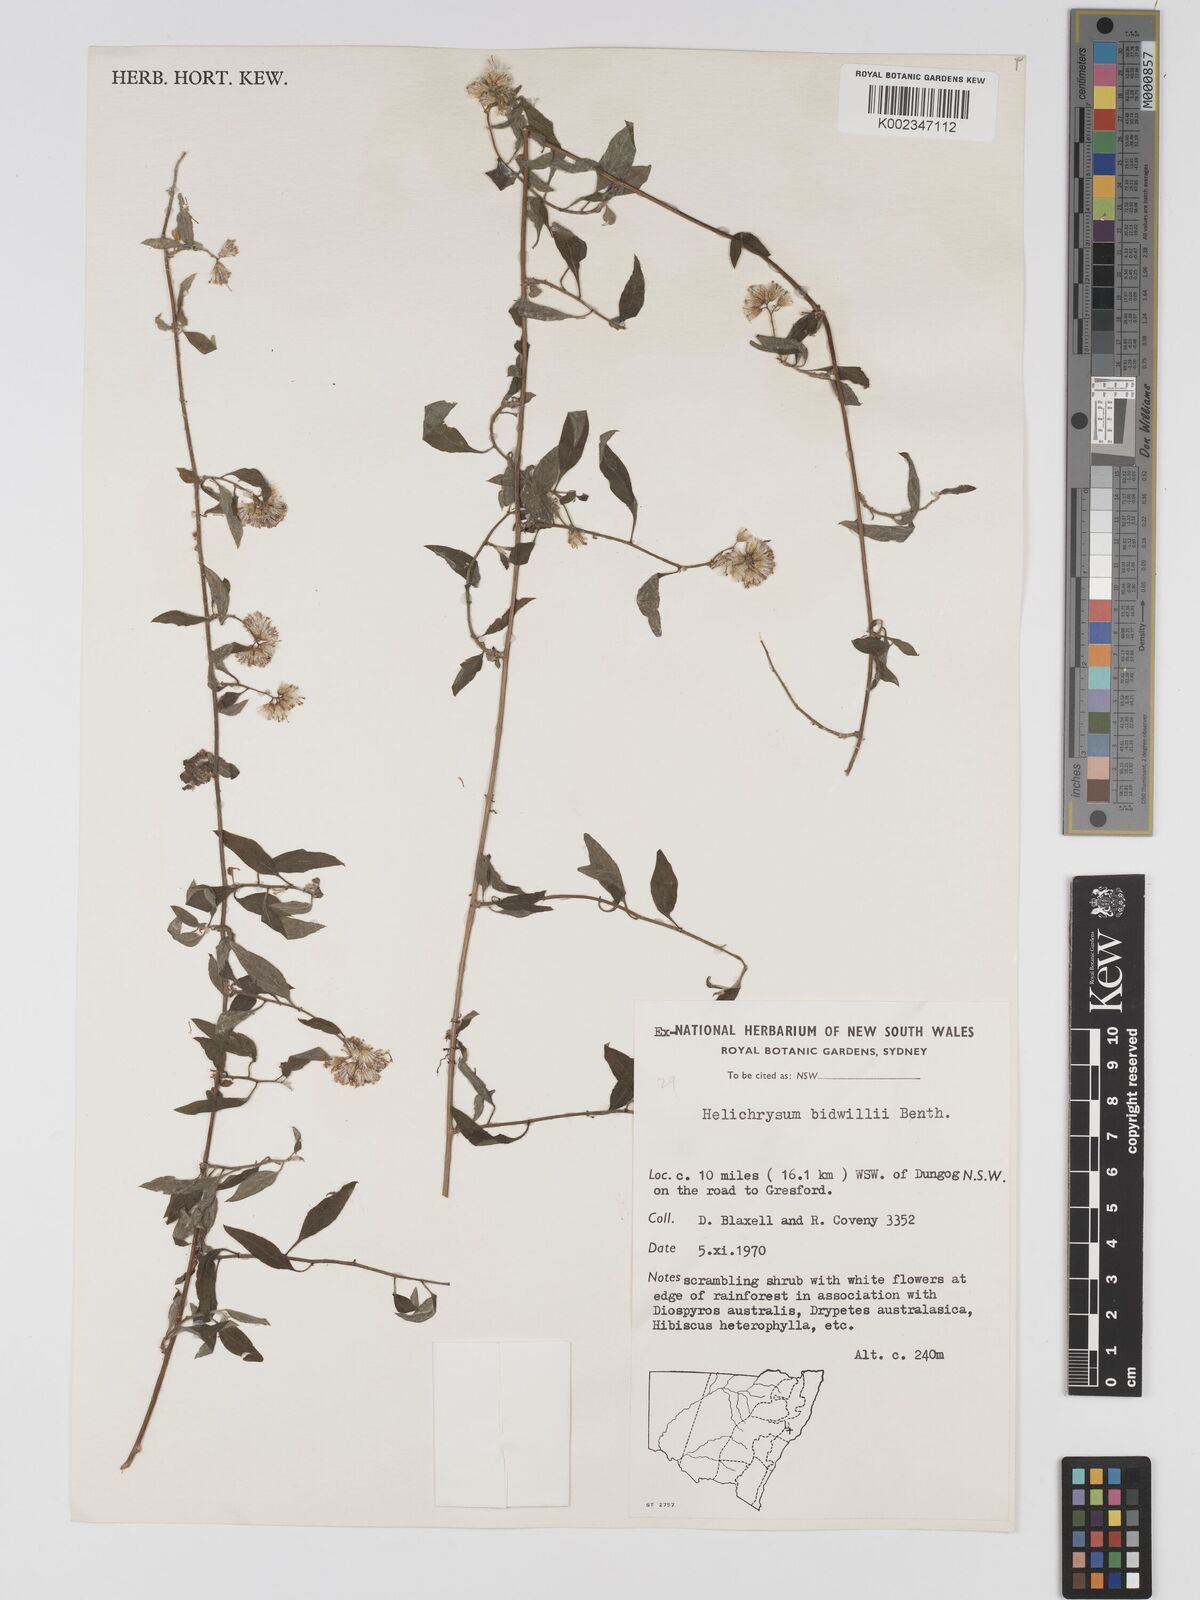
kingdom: Plantae
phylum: Tracheophyta
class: Magnoliopsida
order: Asterales
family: Asteraceae
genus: Ozothamnus
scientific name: Ozothamnus bidwillii
